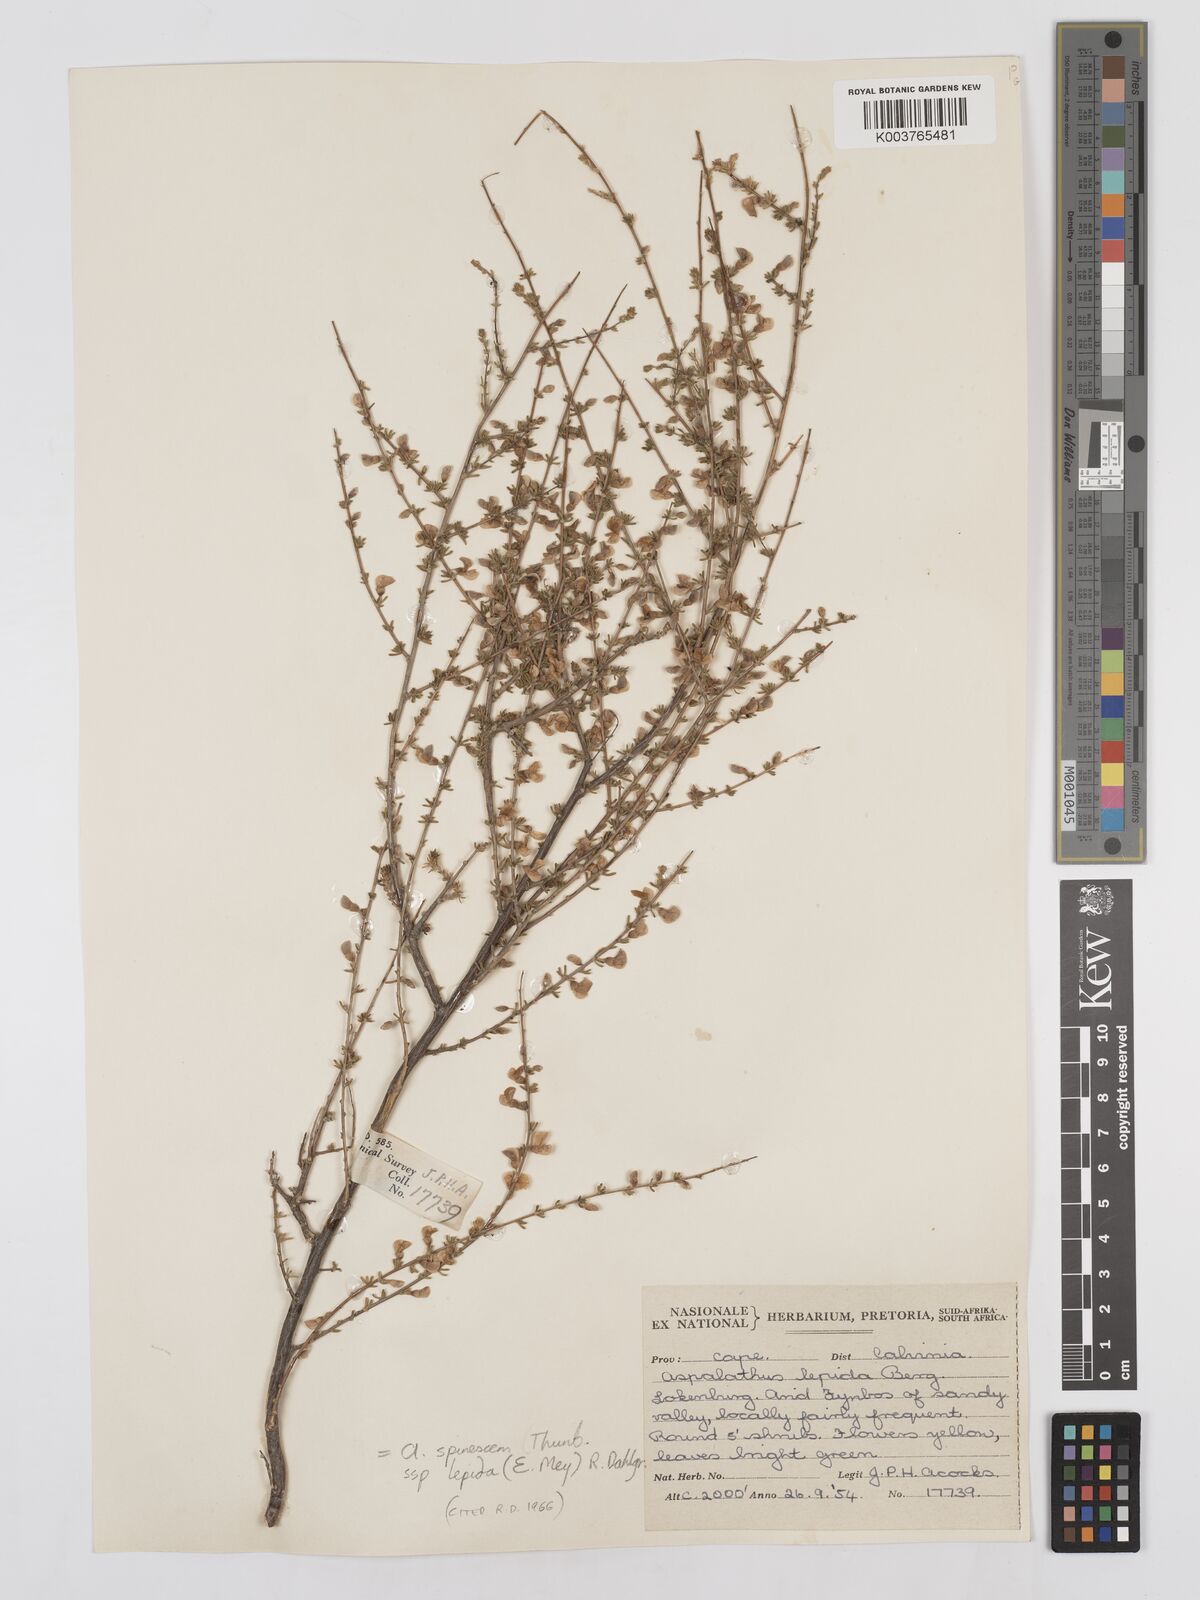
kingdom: Plantae
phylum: Tracheophyta
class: Magnoliopsida
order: Fabales
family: Fabaceae
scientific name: Fabaceae
